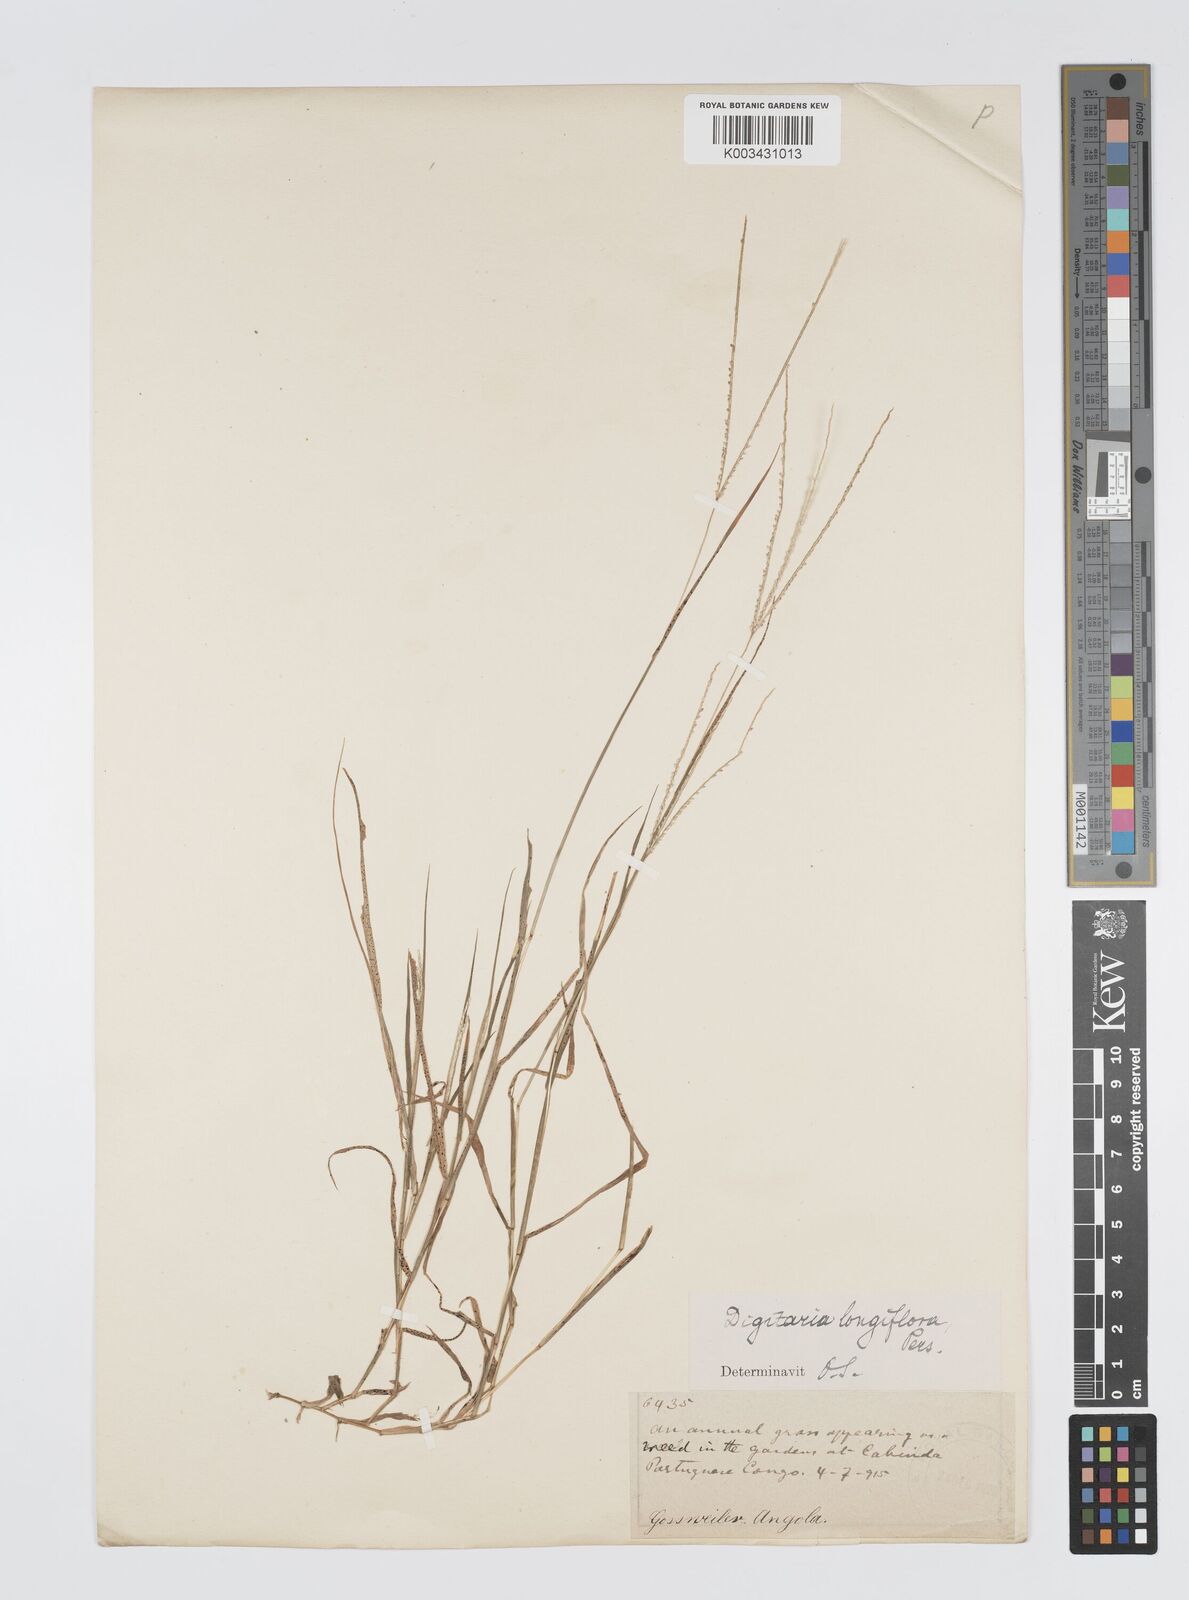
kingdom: Plantae
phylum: Tracheophyta
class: Liliopsida
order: Poales
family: Poaceae
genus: Digitaria
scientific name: Digitaria longiflora
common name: Wire crabgrass
